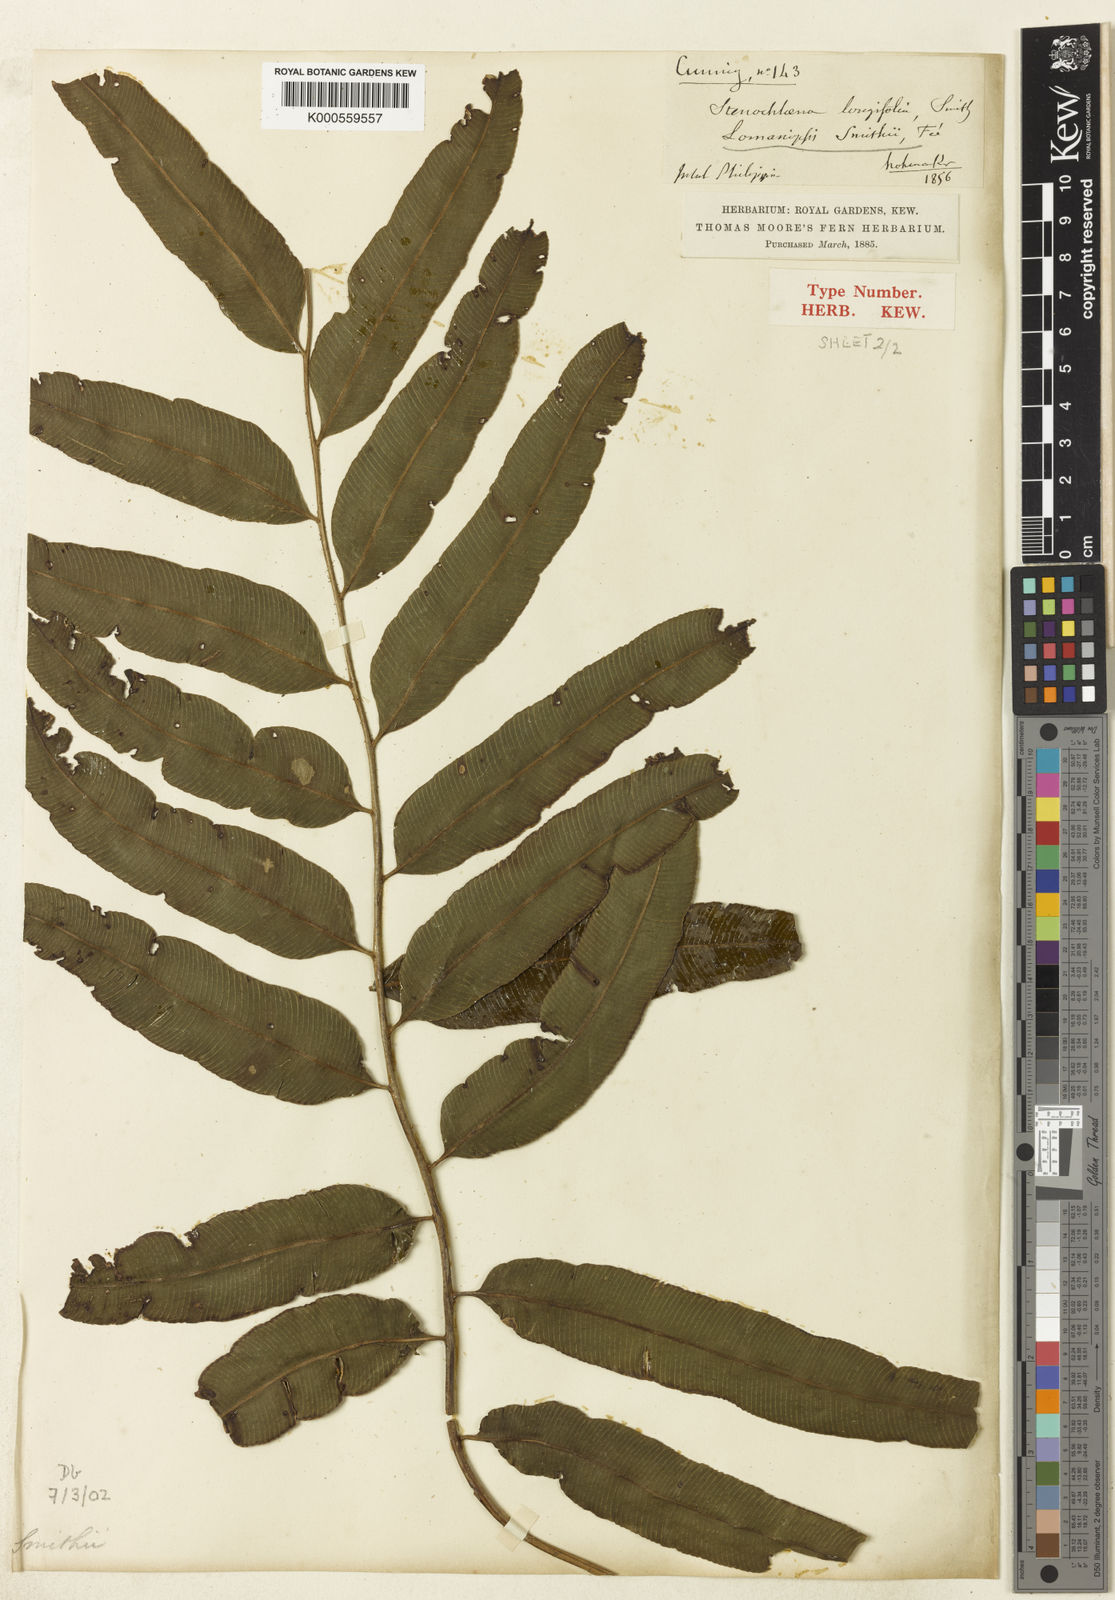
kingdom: Plantae
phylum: Tracheophyta
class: Polypodiopsida
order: Polypodiales
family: Lomariopsidaceae
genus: Lomariopsis
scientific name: Lomariopsis
